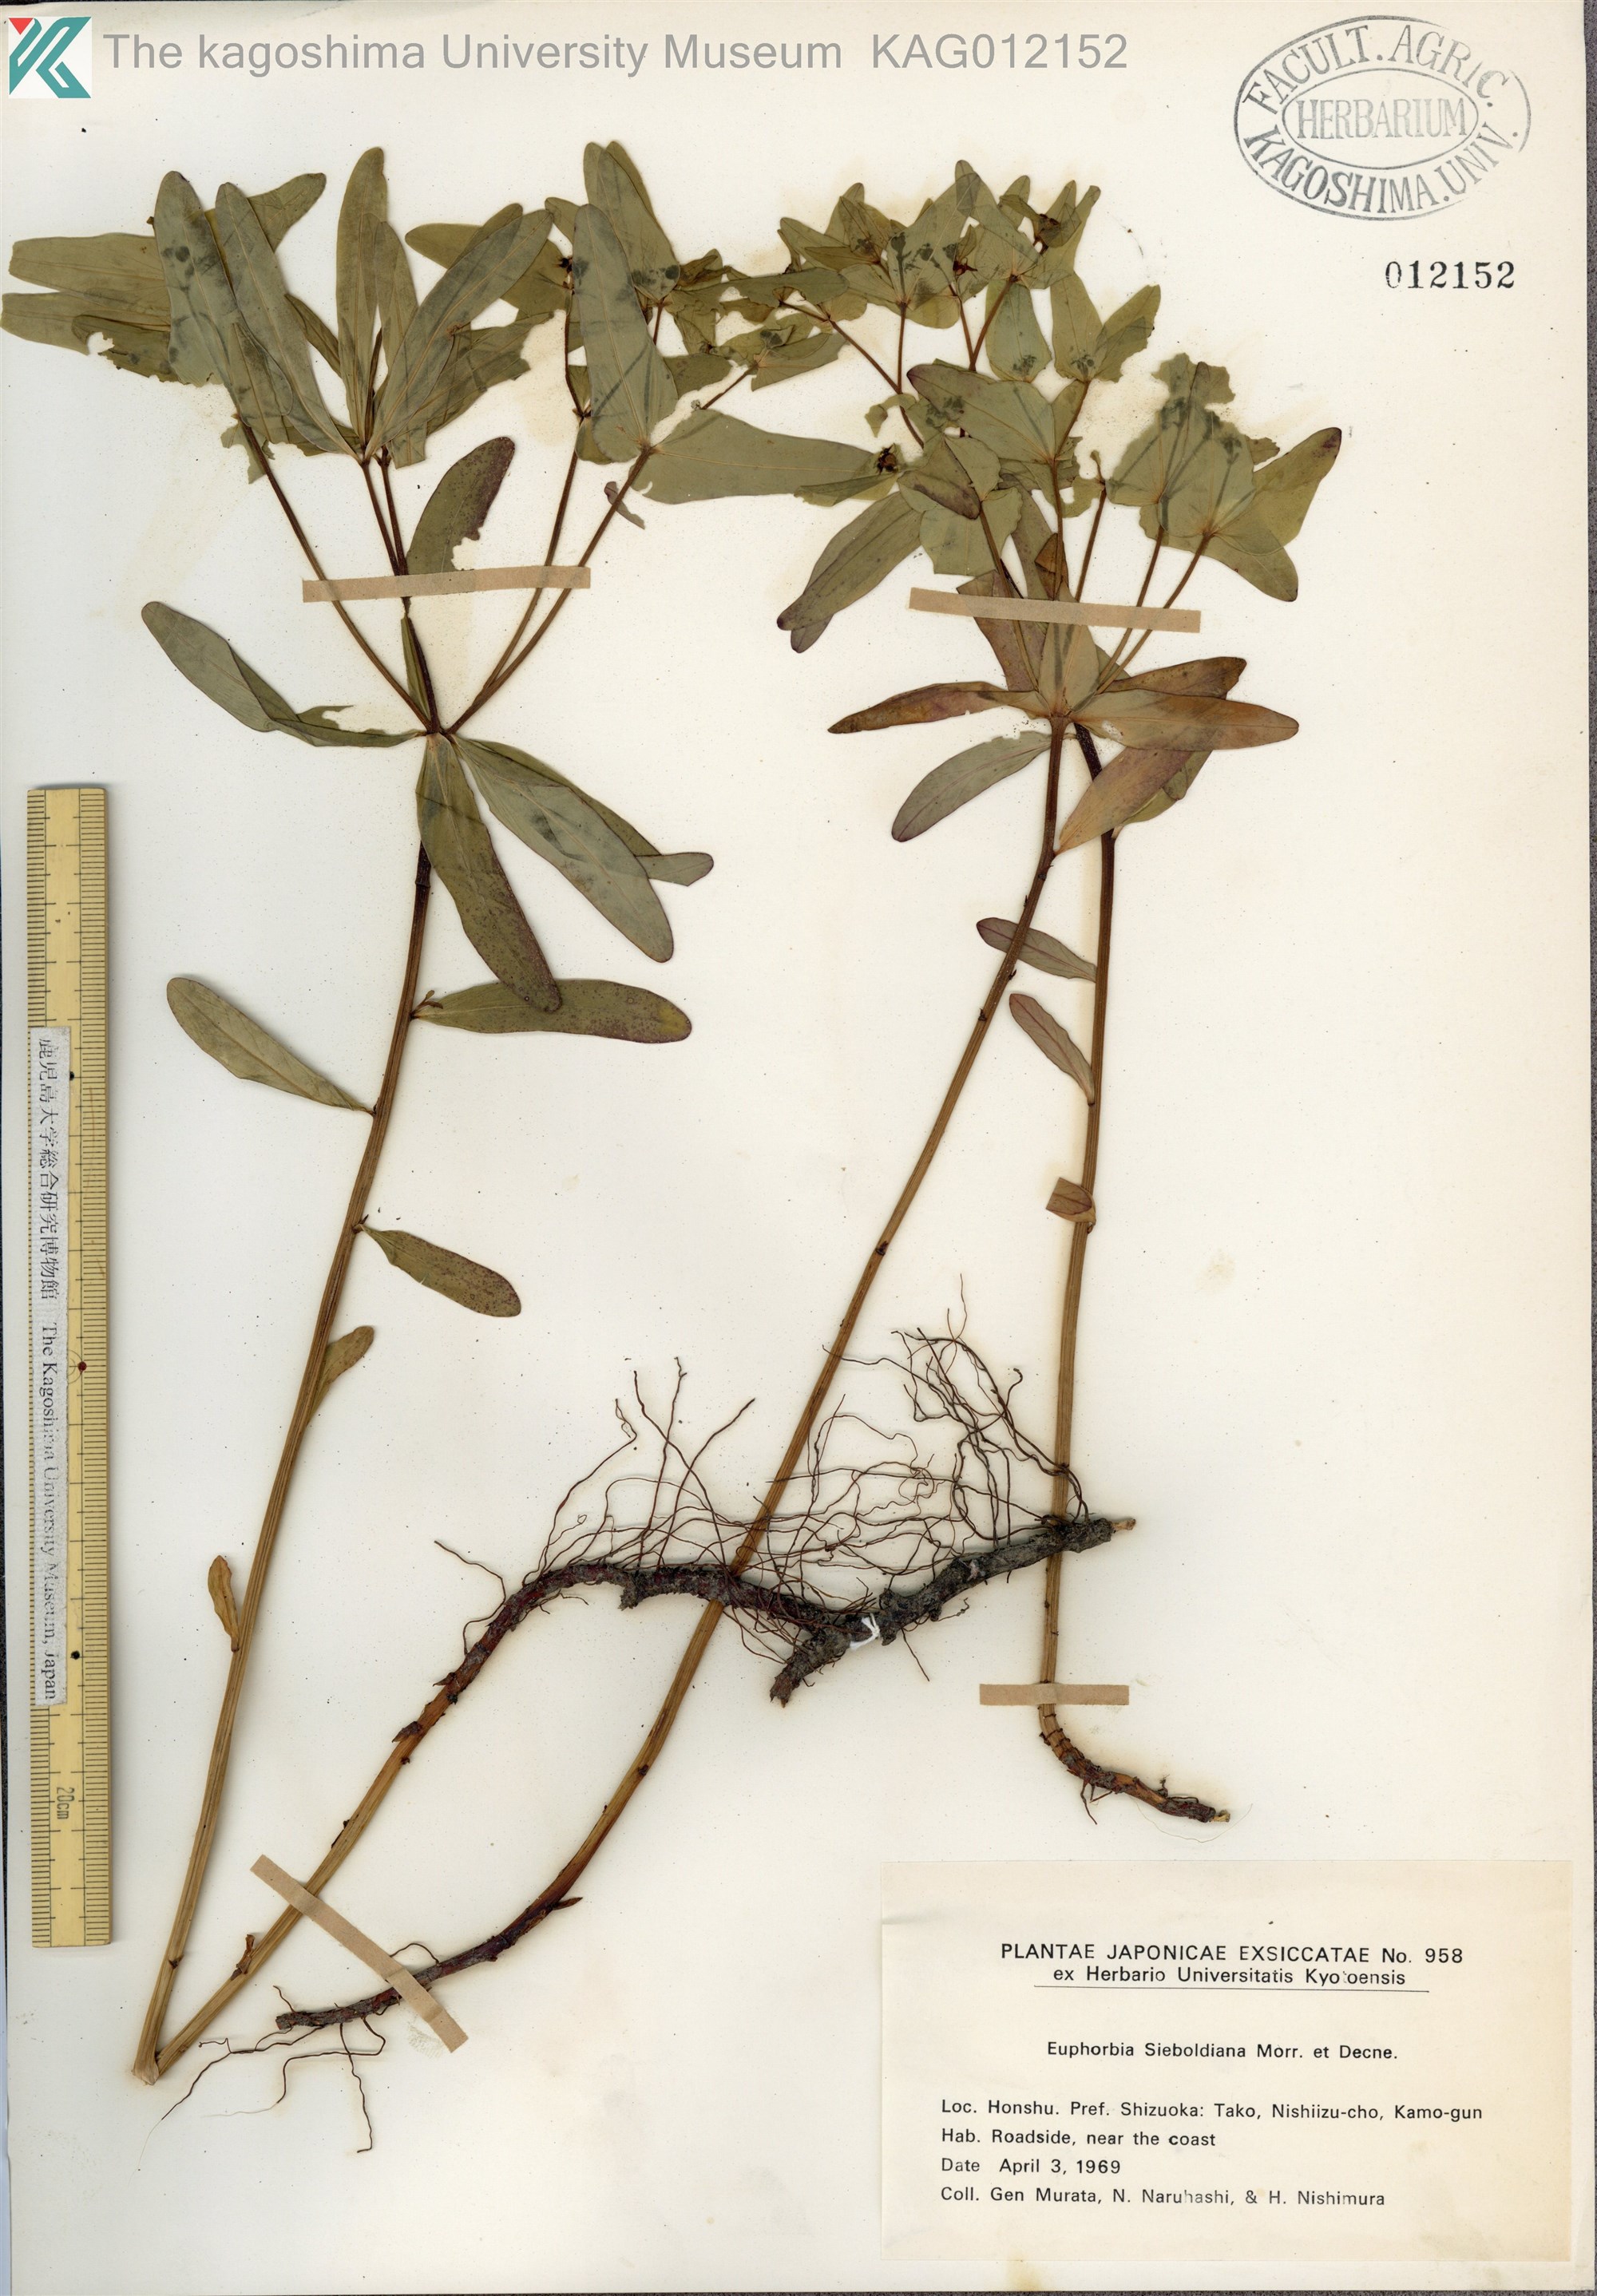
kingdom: Plantae
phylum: Tracheophyta
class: Magnoliopsida
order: Malpighiales
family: Euphorbiaceae
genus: Euphorbia
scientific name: Euphorbia sieboldiana
